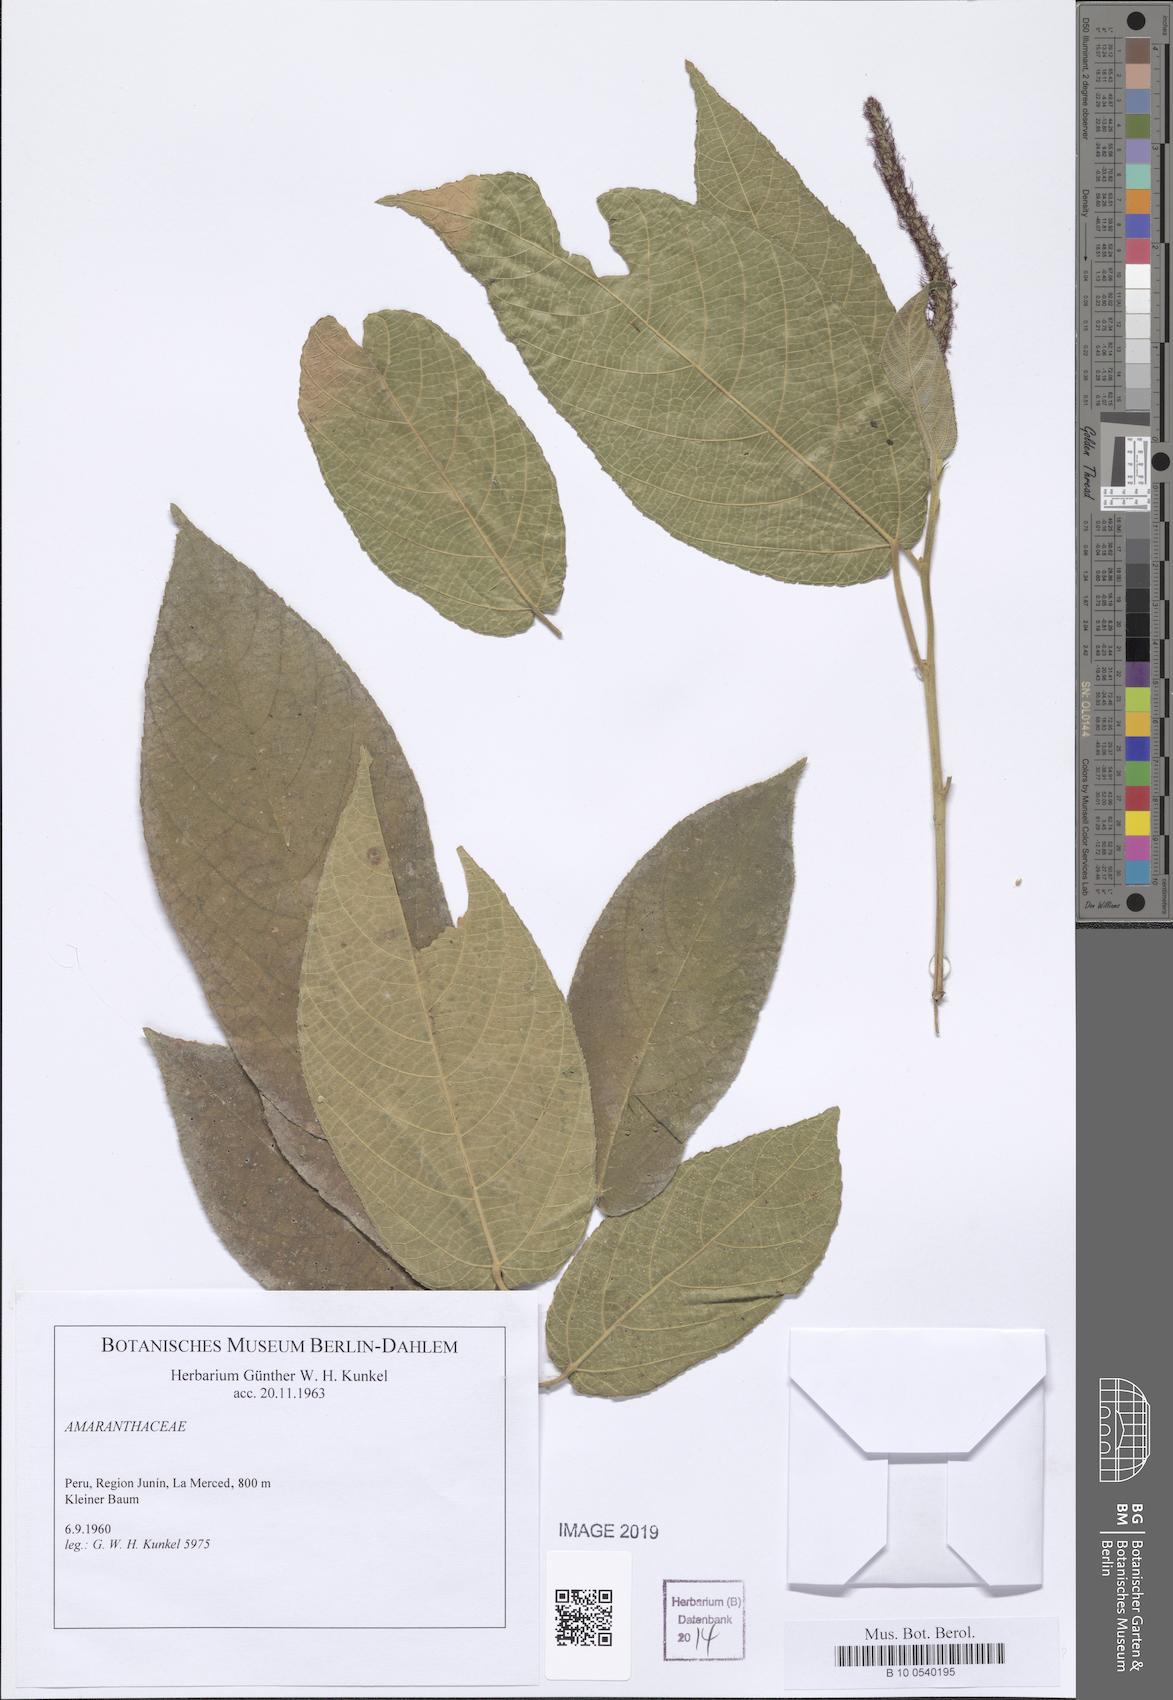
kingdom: Plantae
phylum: Tracheophyta
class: Magnoliopsida
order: Caryophyllales
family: Amaranthaceae
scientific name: Amaranthaceae
